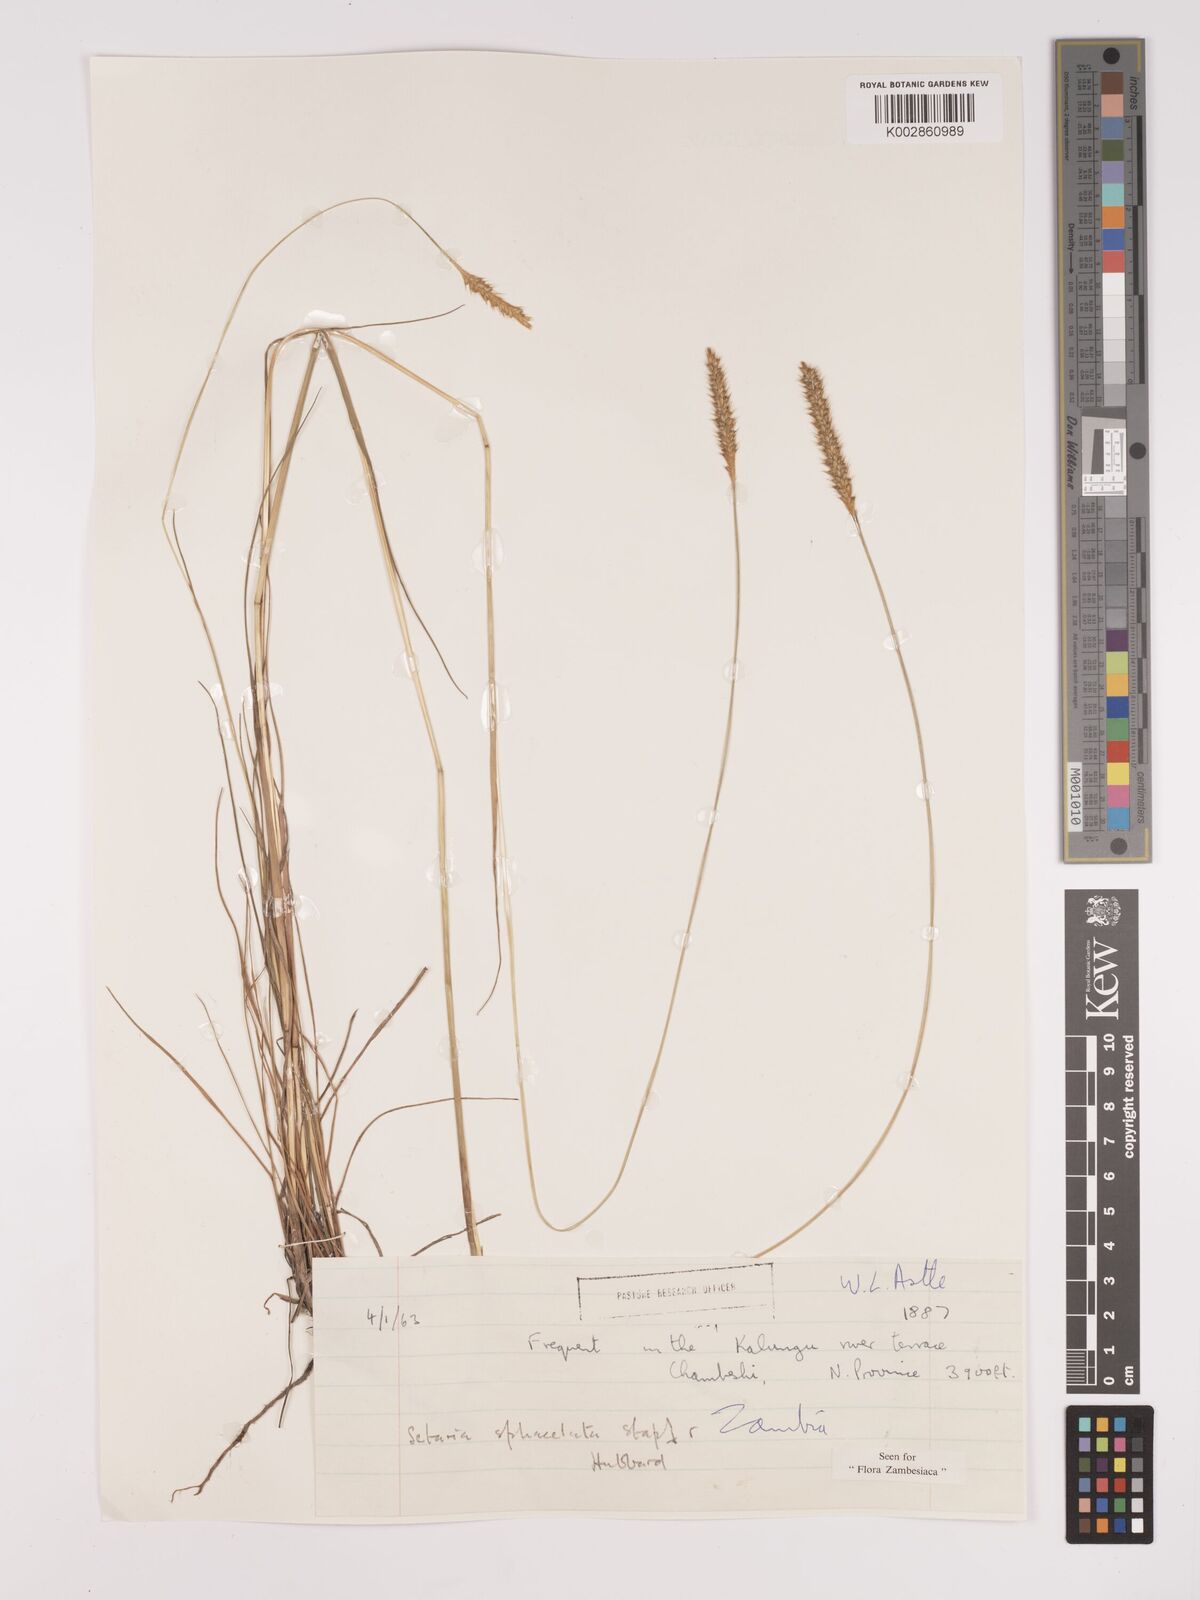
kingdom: Plantae
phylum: Tracheophyta
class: Liliopsida
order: Poales
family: Poaceae
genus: Setaria
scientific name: Setaria
